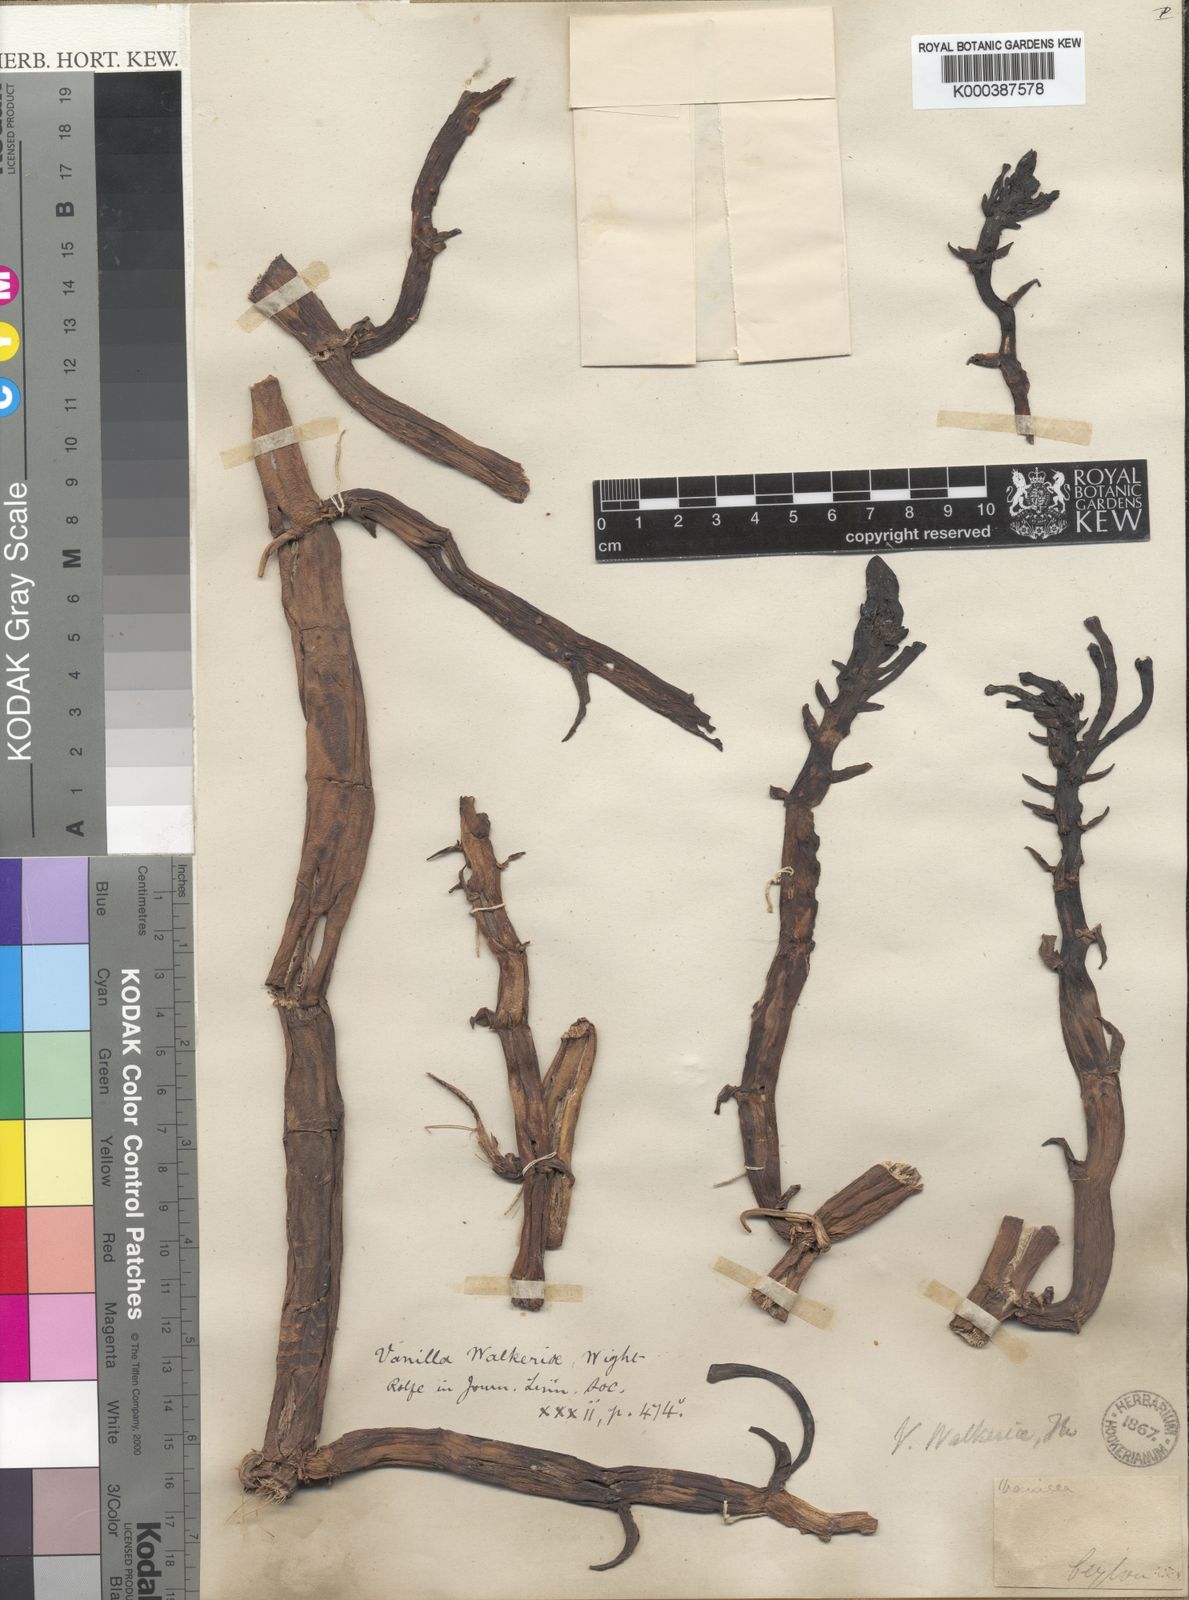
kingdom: Plantae
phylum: Tracheophyta
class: Liliopsida
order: Asparagales
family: Orchidaceae
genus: Vanilla
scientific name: Vanilla walkerae
